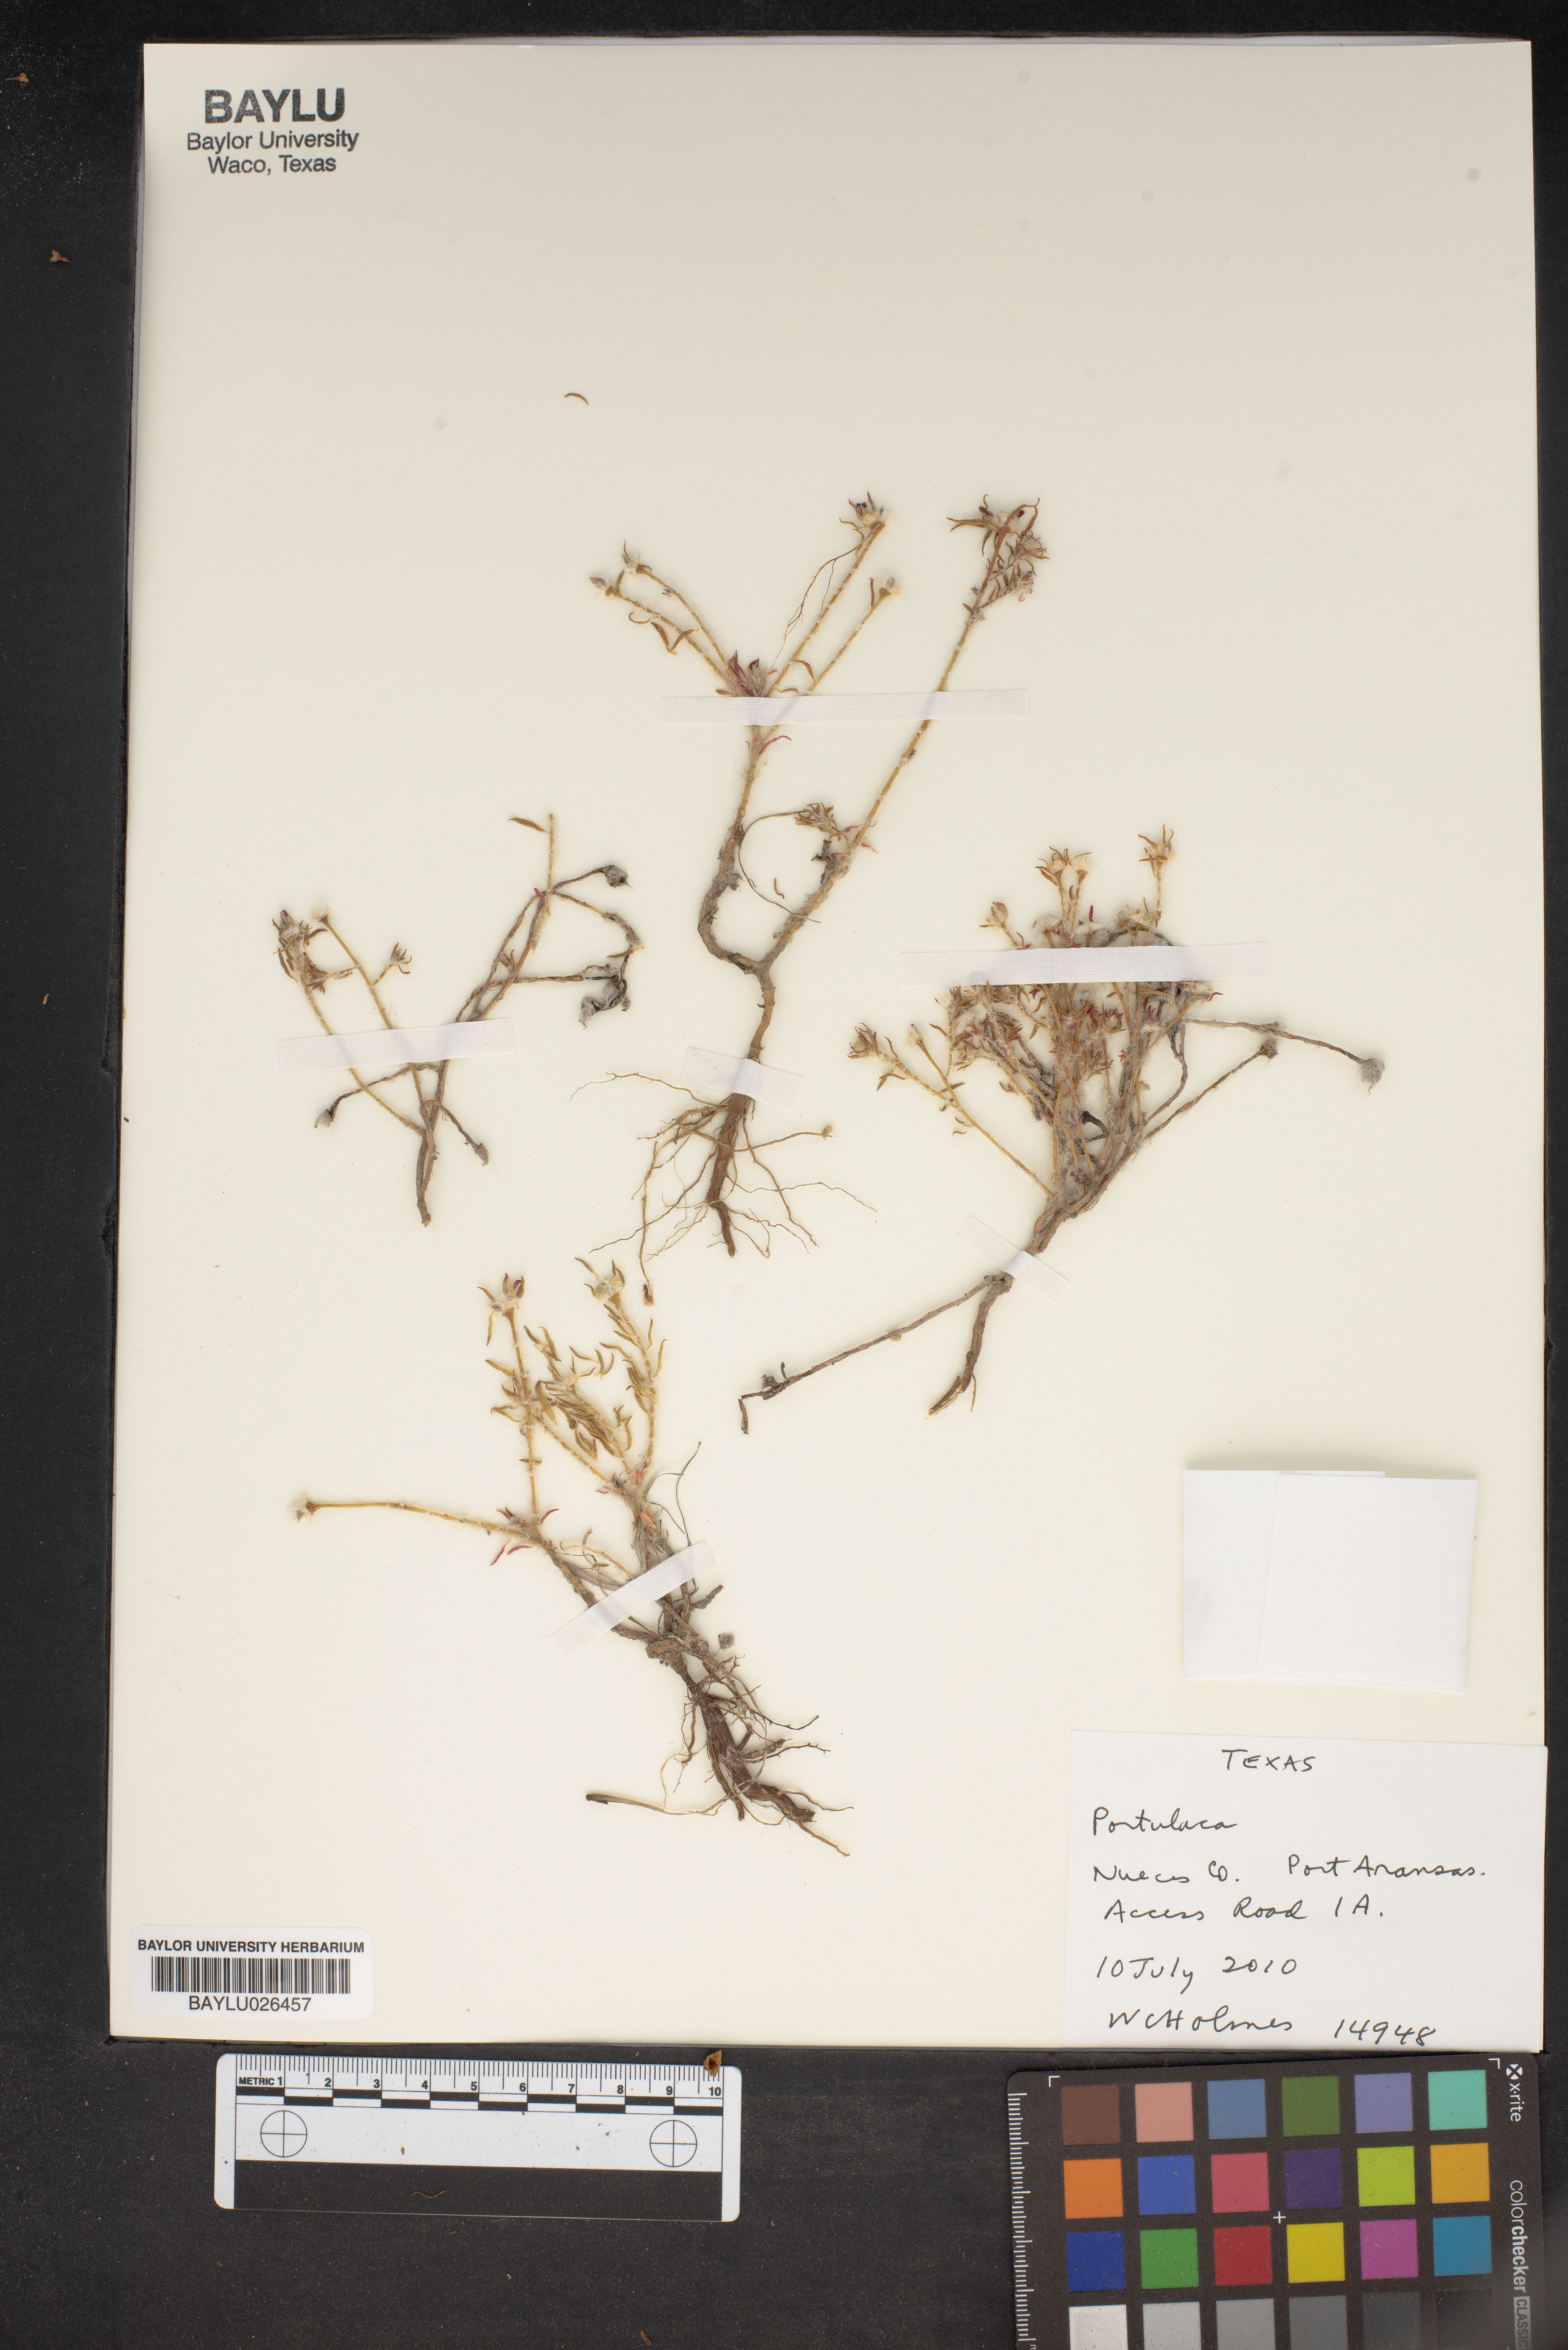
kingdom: Plantae
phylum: Tracheophyta
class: Magnoliopsida
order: Caryophyllales
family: Portulacaceae
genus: Portulaca
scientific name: Portulaca
